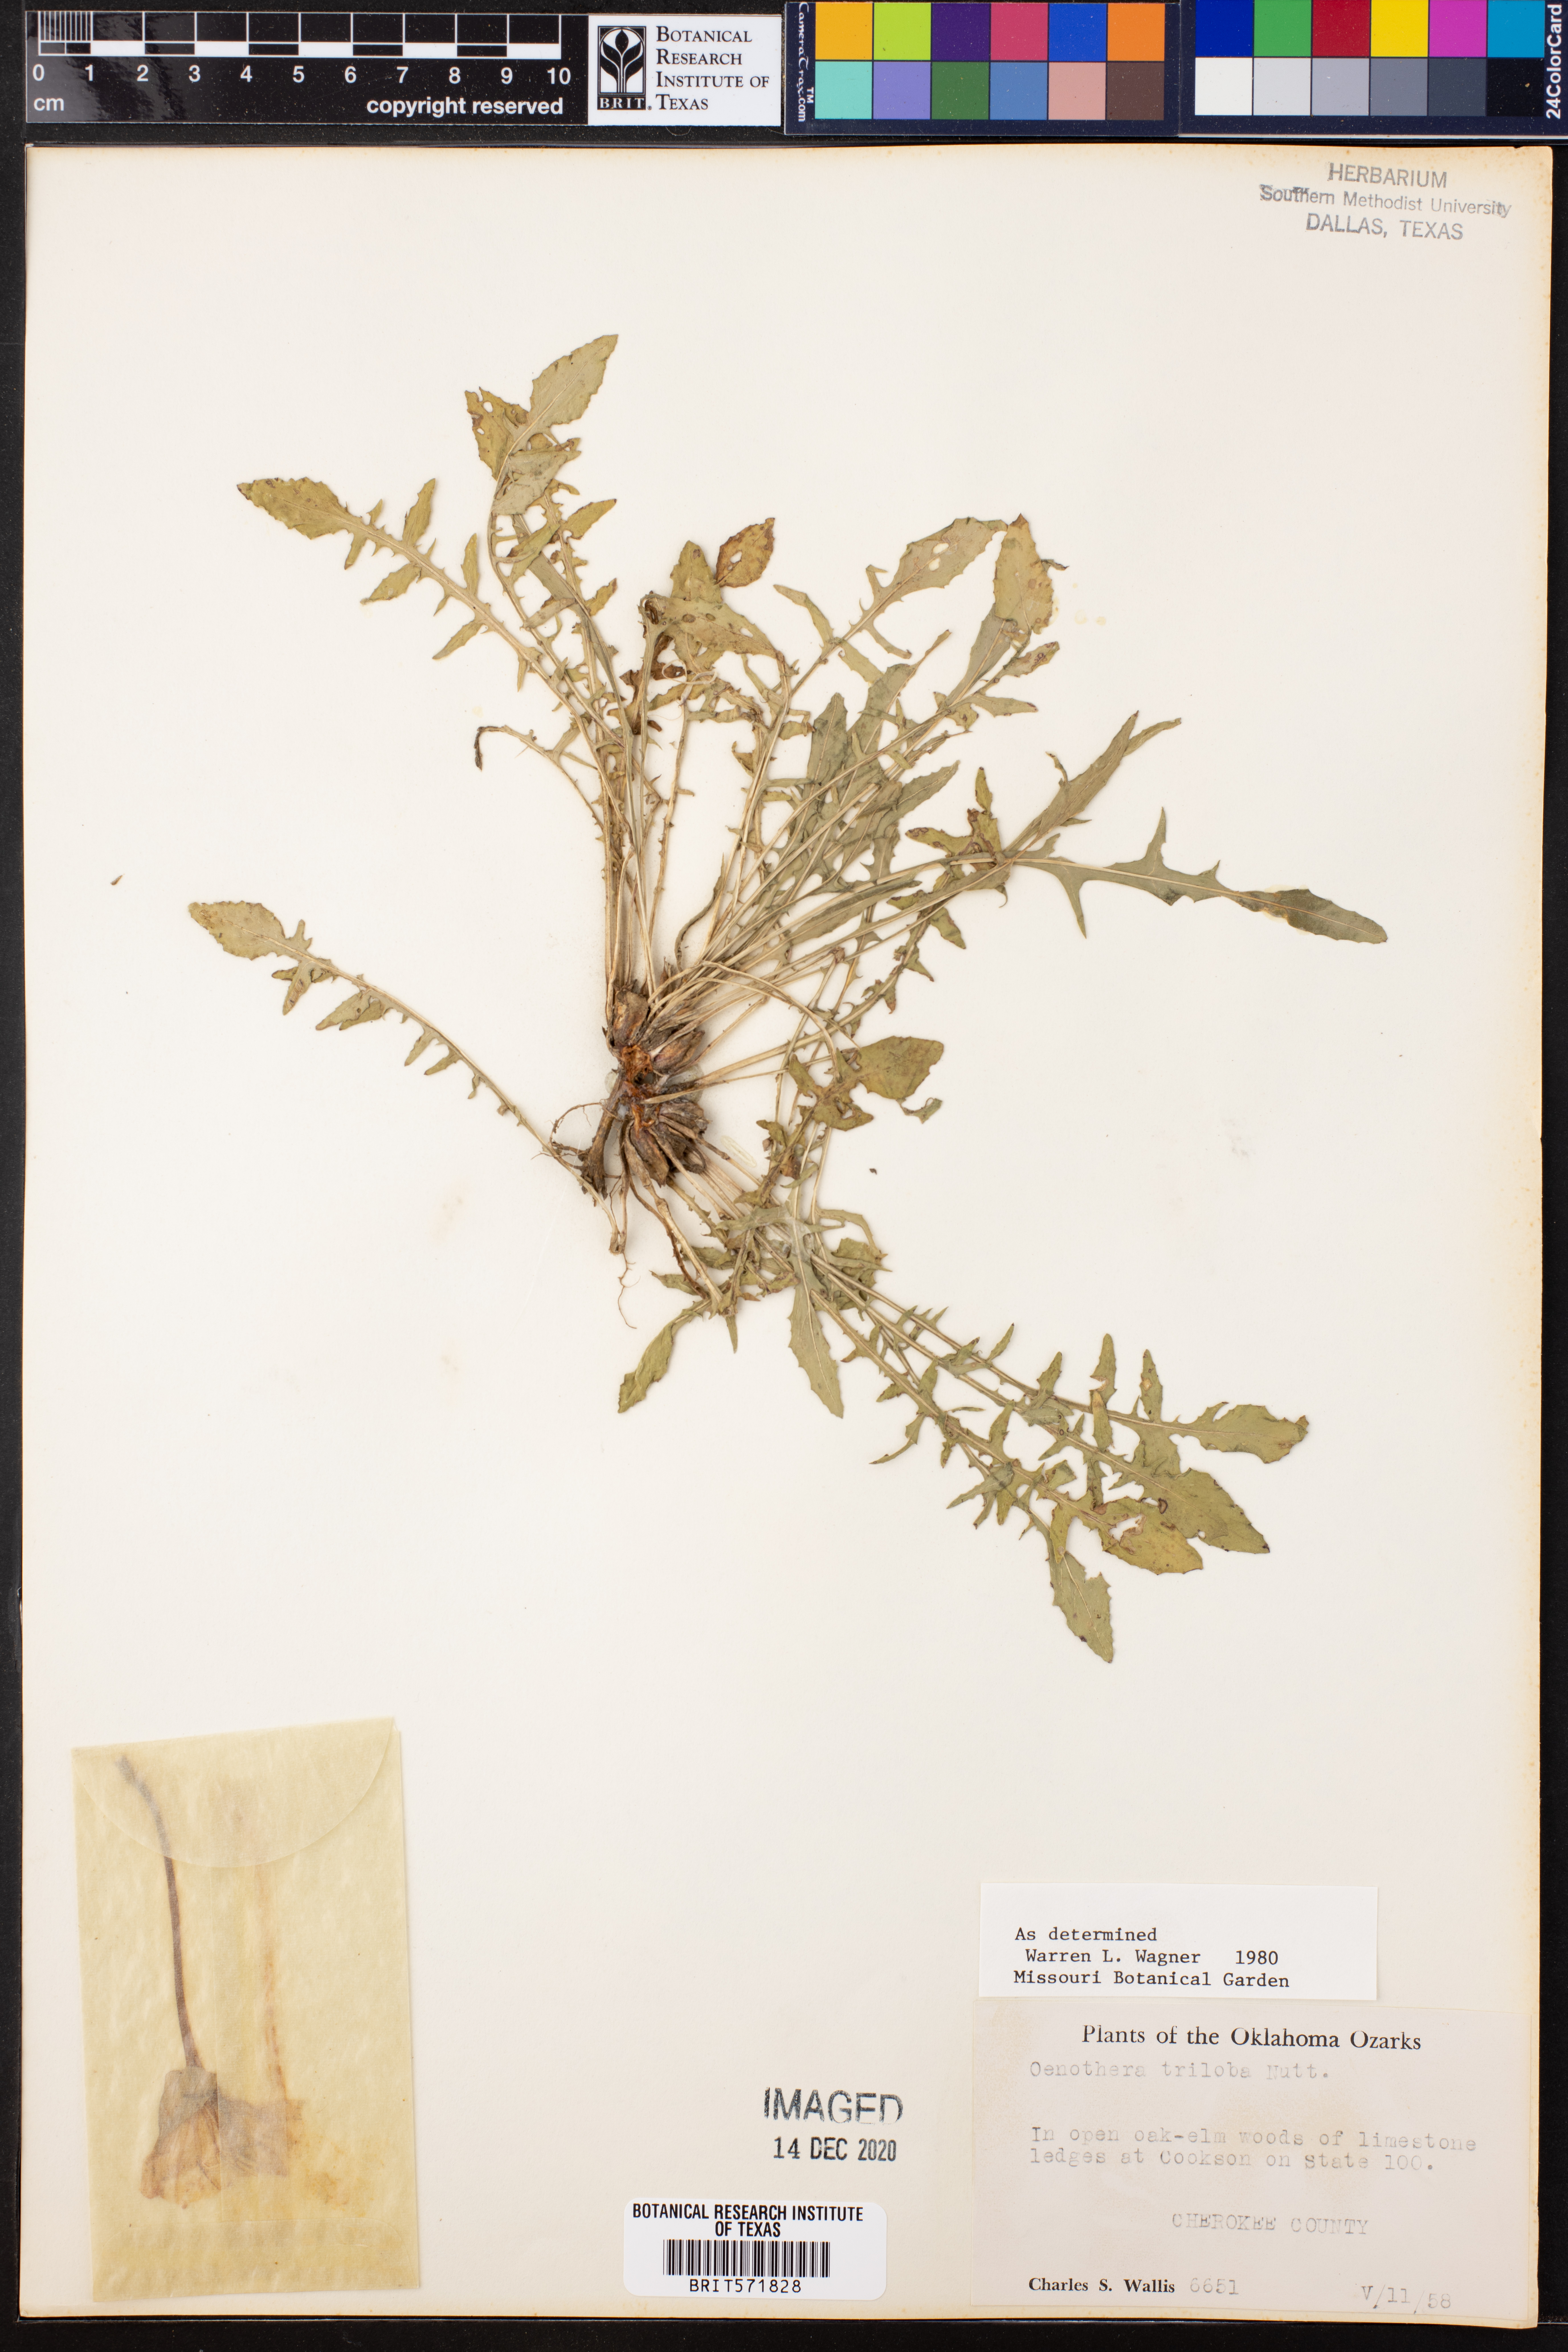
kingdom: Plantae
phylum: Tracheophyta
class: Magnoliopsida
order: Myrtales
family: Onagraceae
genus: Oenothera
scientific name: Oenothera triloba
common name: Sessile evening-primrose
